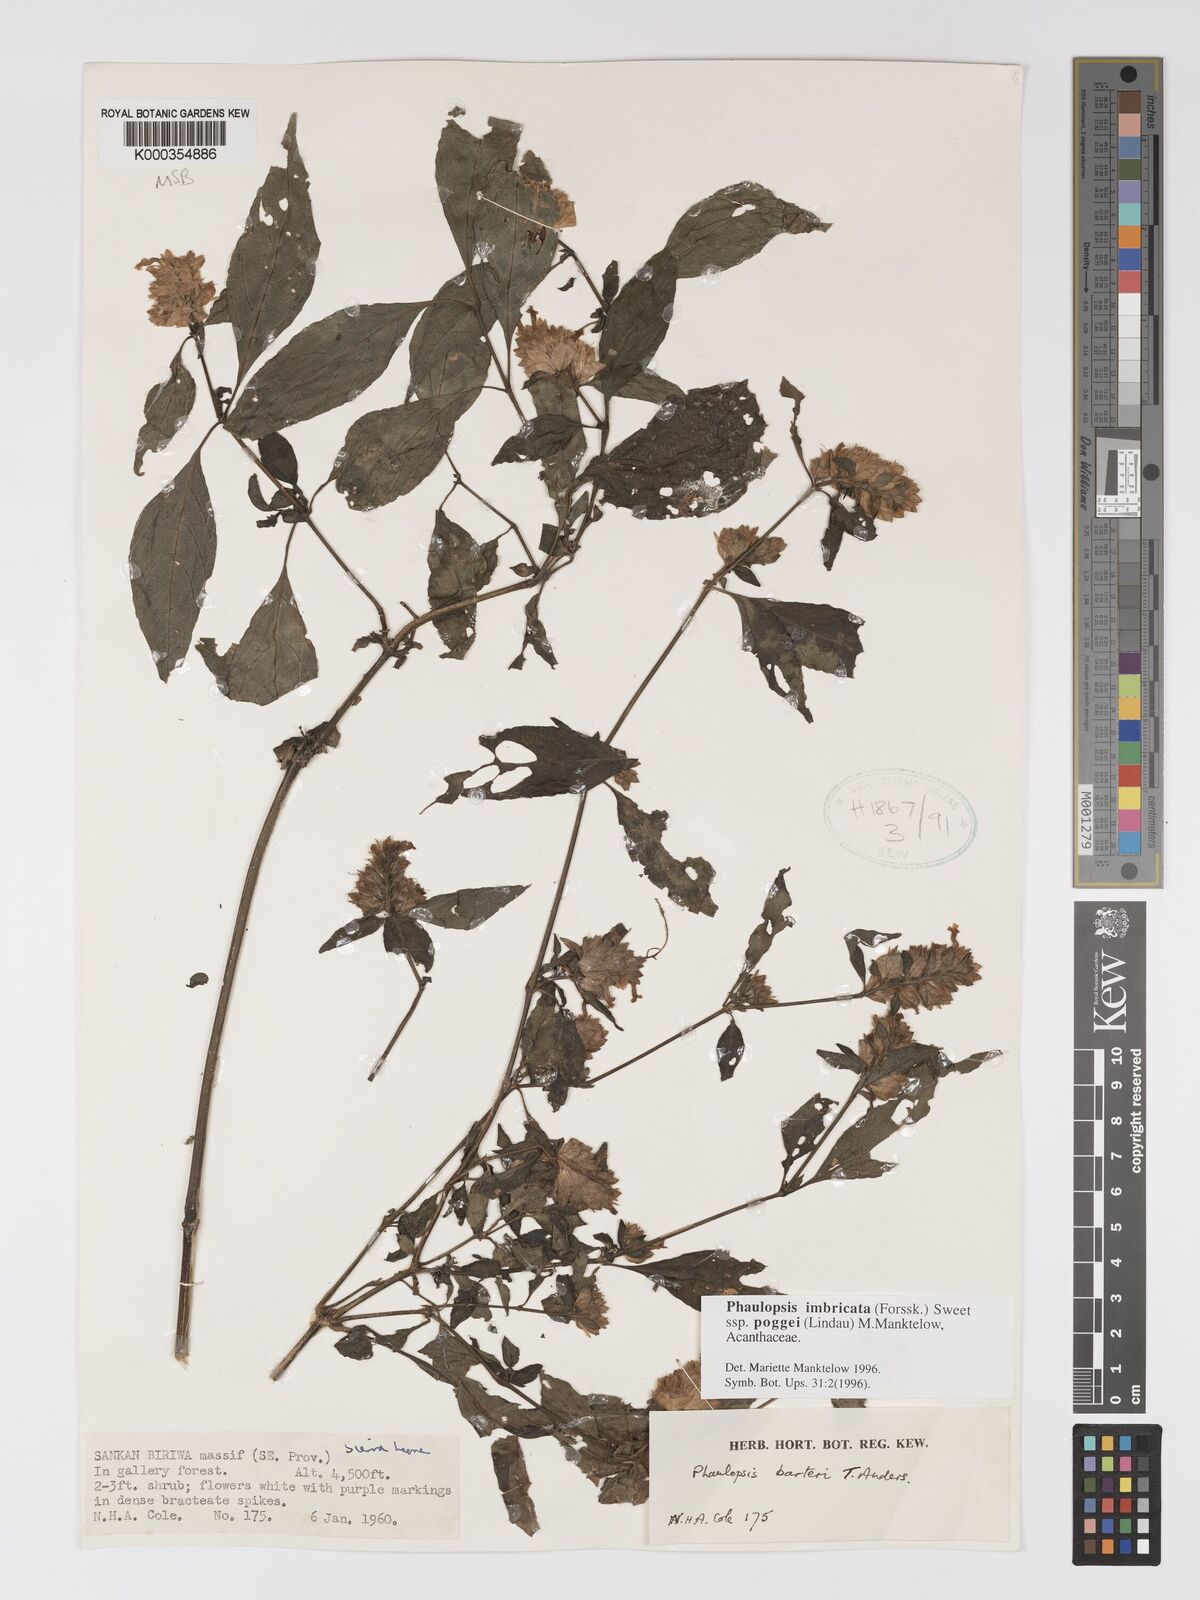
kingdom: Plantae
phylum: Tracheophyta
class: Magnoliopsida
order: Lamiales
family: Acanthaceae
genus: Phaulopsis
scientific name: Phaulopsis imbricata
